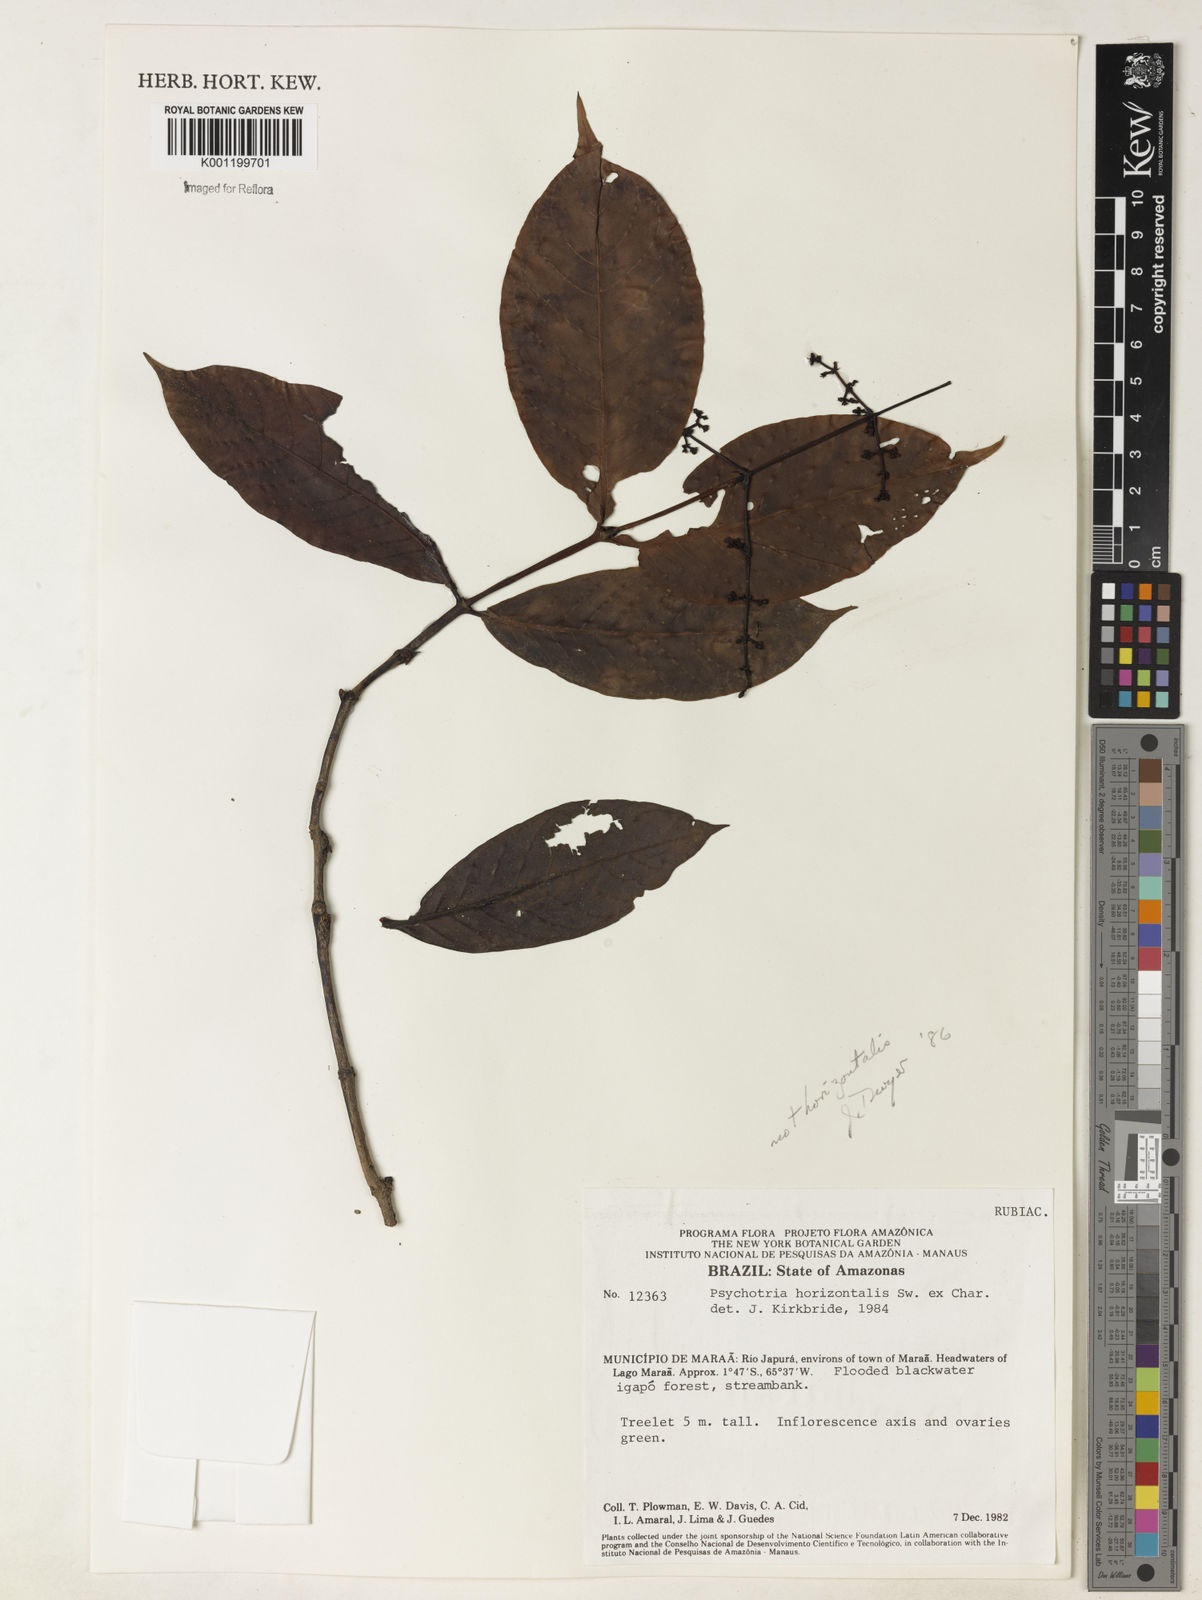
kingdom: Plantae
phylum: Tracheophyta
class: Magnoliopsida
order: Gentianales
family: Rubiaceae
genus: Psychotria
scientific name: Psychotria horizontalis
